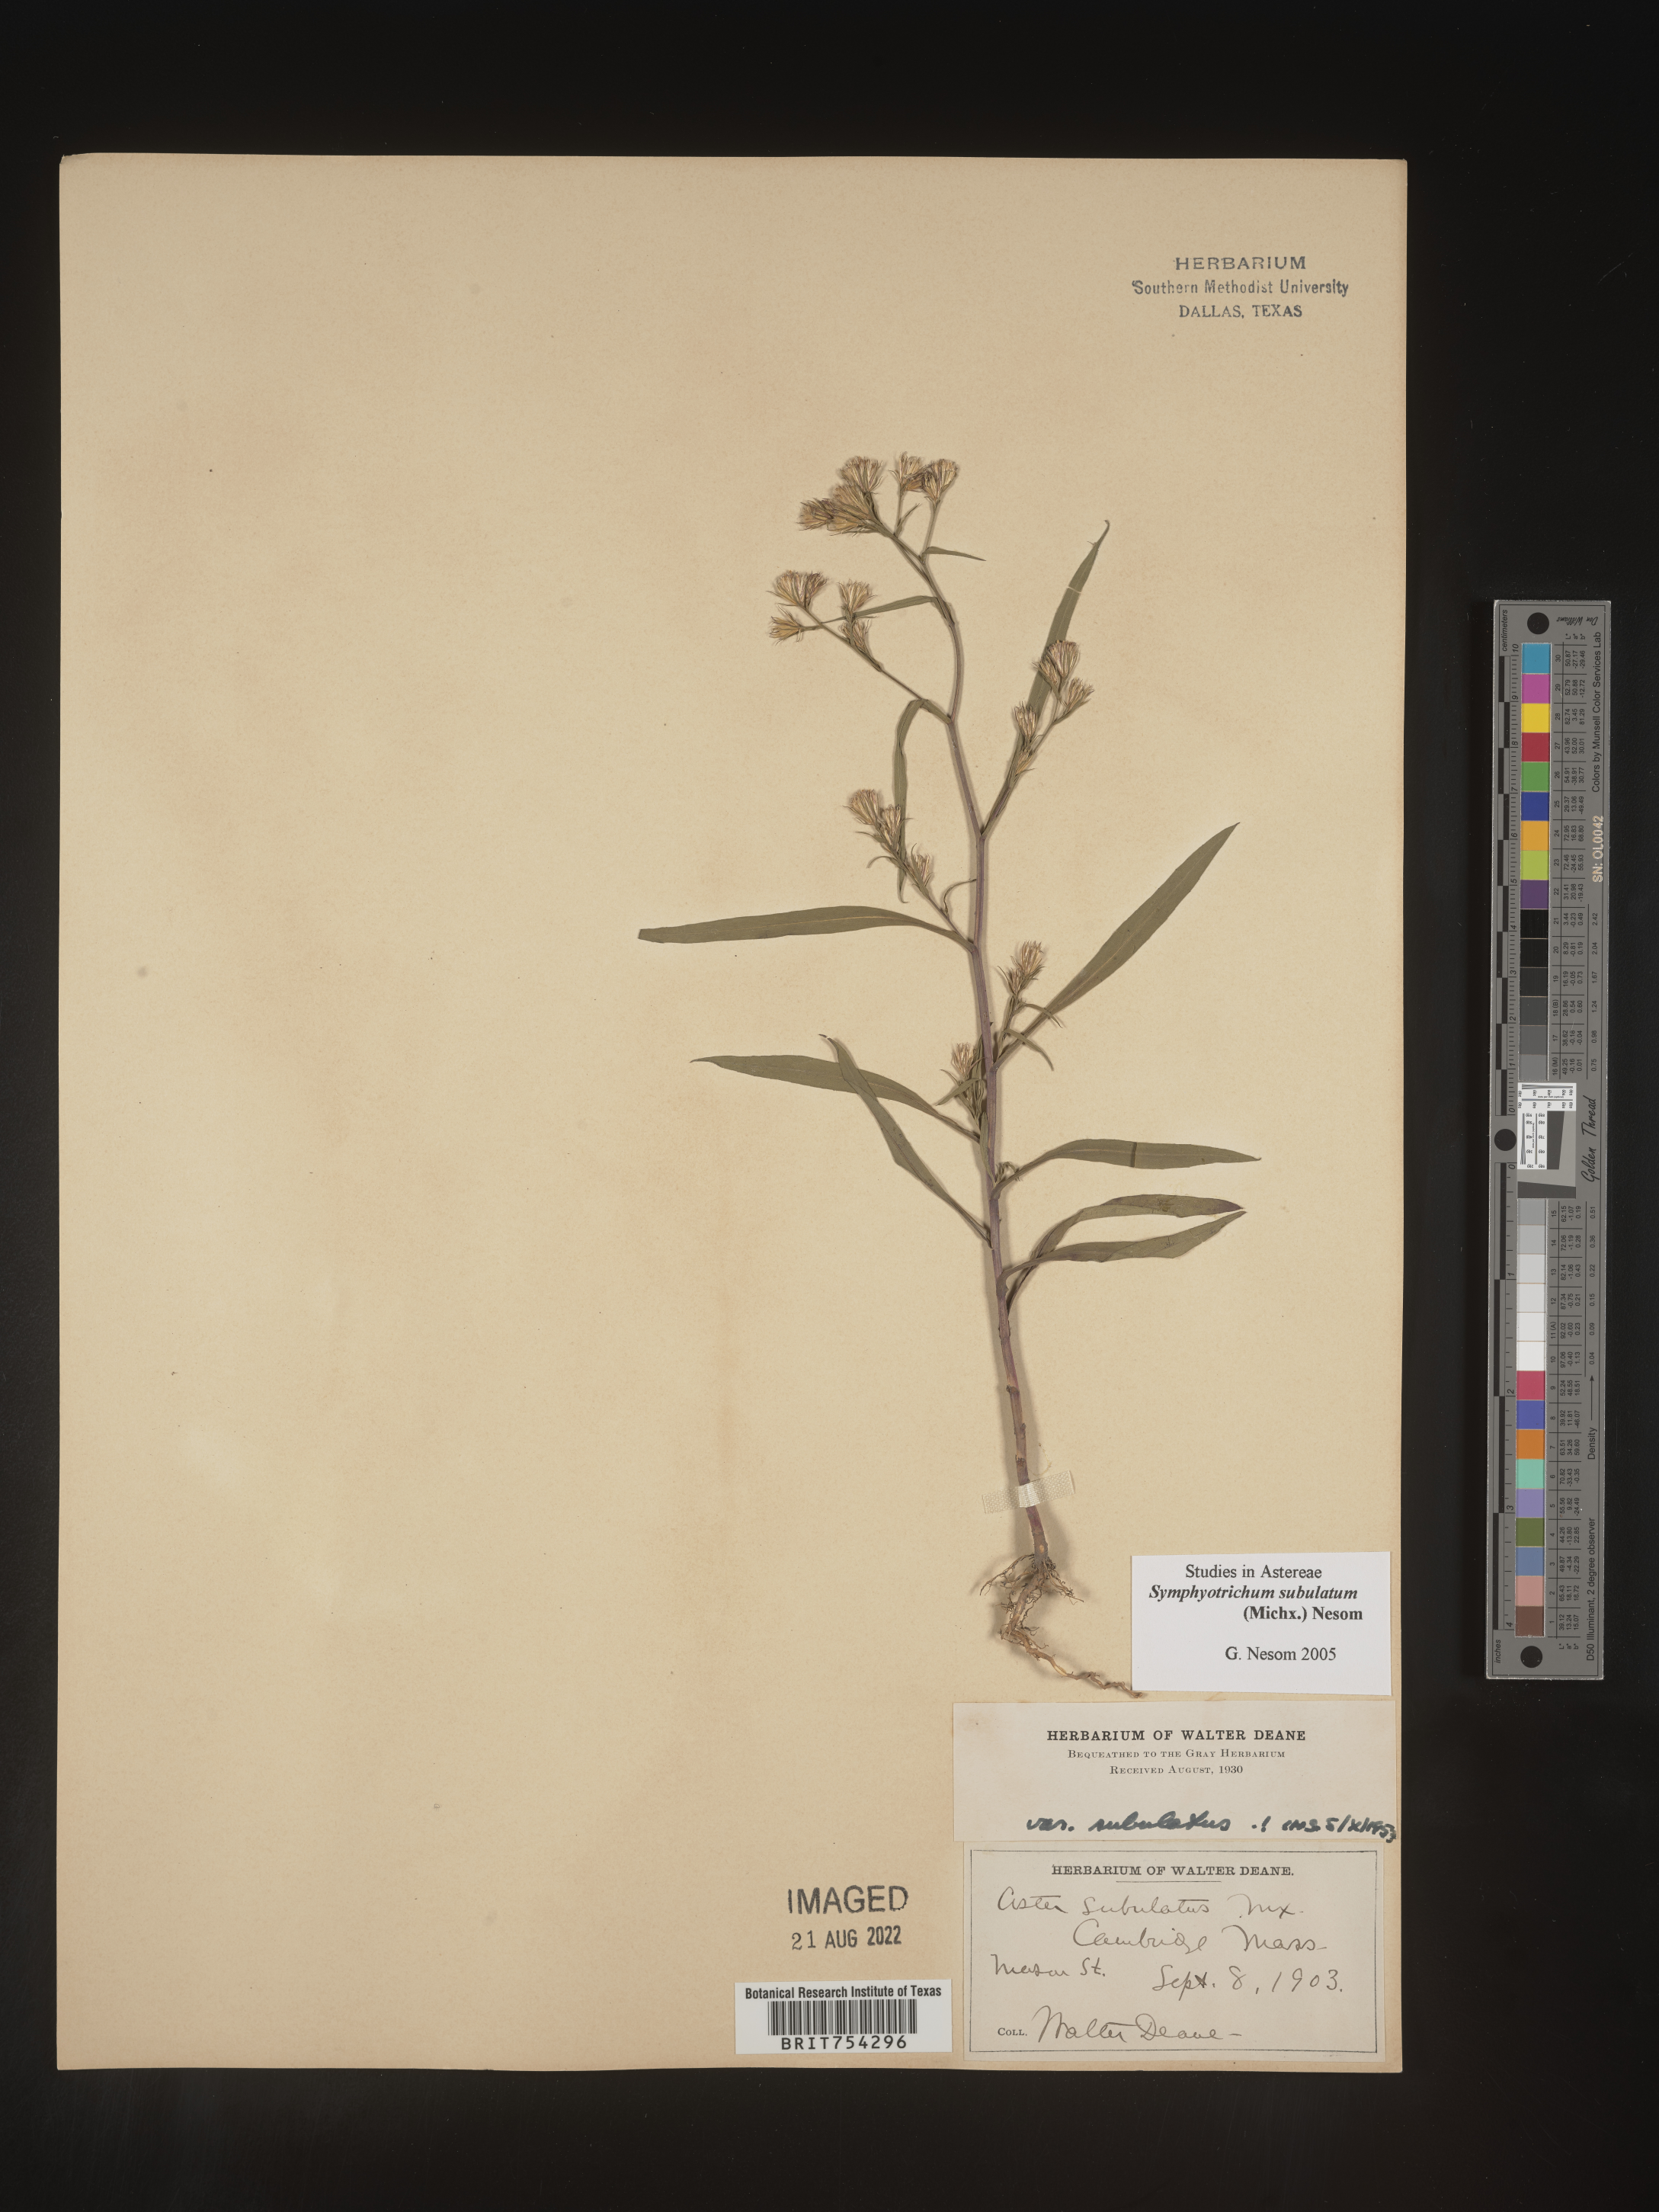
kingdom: Plantae
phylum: Tracheophyta
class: Magnoliopsida
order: Asterales
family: Asteraceae
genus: Symphyotrichum
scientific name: Symphyotrichum subulatum
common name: Annual saltmarsh aster
